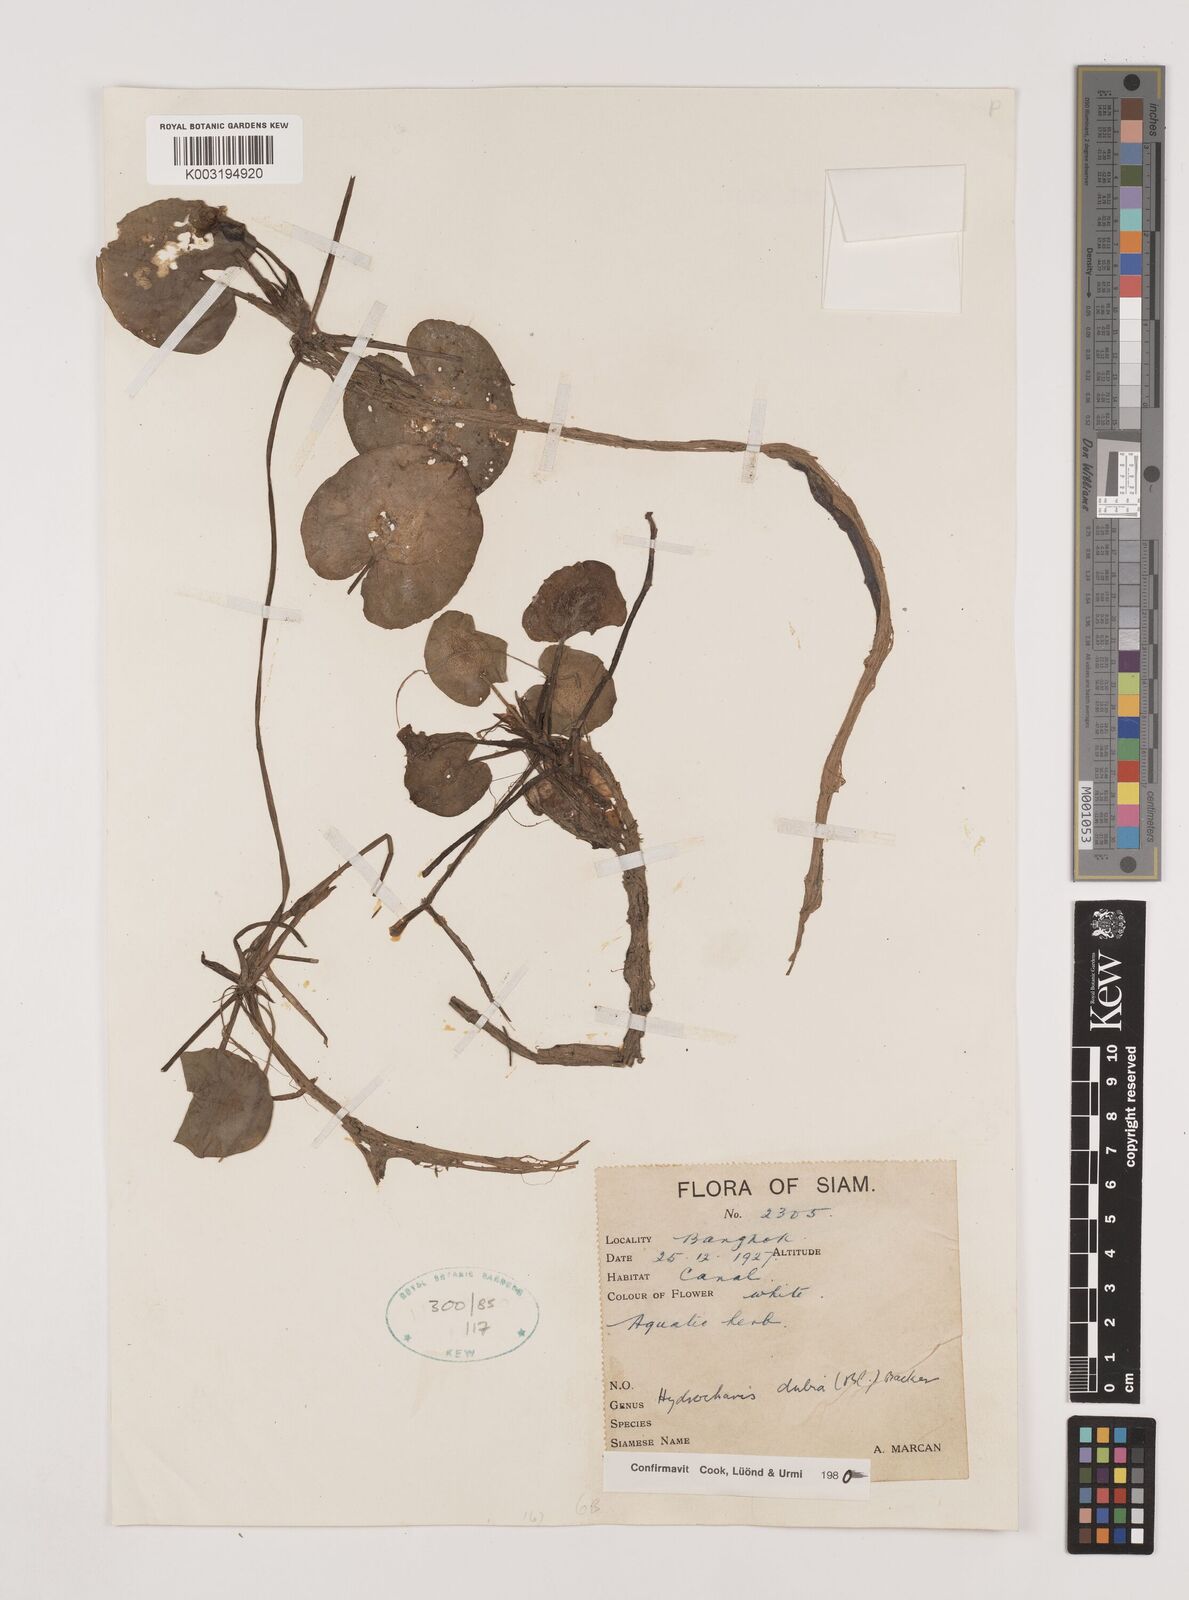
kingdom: Plantae
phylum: Tracheophyta
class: Liliopsida
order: Alismatales
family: Hydrocharitaceae
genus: Hydrocharis
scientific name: Hydrocharis dubia
